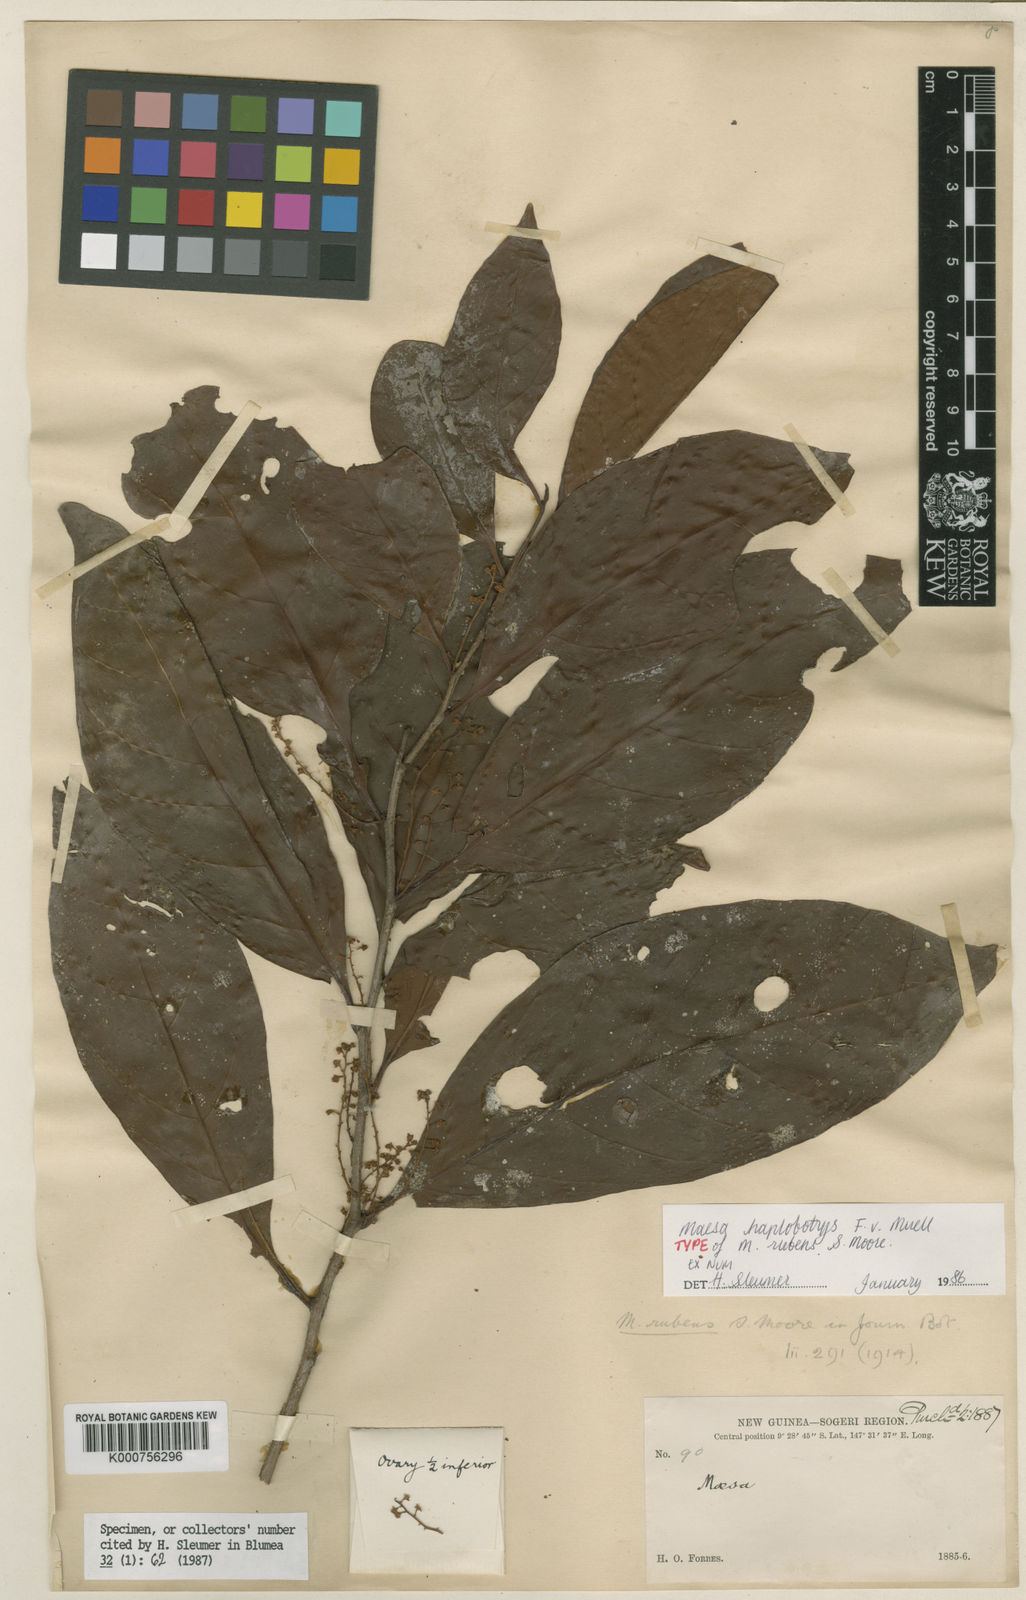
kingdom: Plantae
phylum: Tracheophyta
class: Magnoliopsida
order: Ericales
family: Primulaceae
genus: Maesa
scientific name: Maesa haplobotrys
